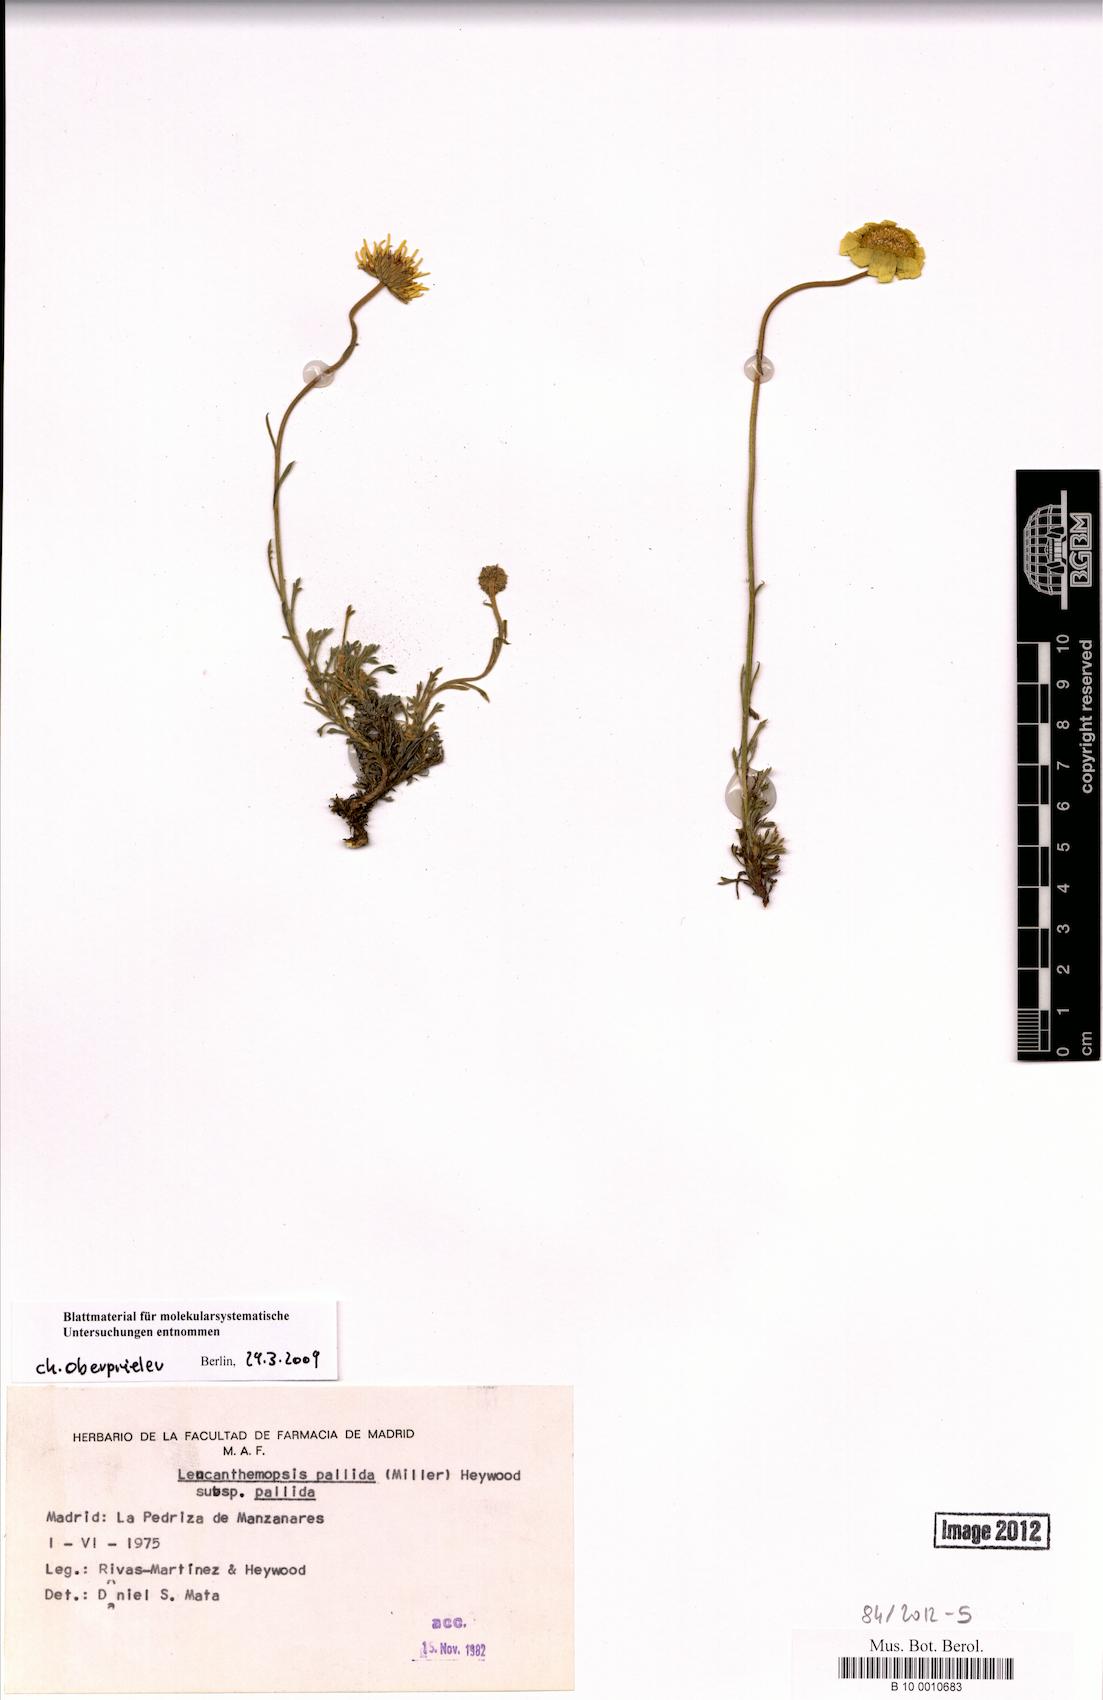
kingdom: Plantae
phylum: Tracheophyta
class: Magnoliopsida
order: Asterales
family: Asteraceae
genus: Leucanthemopsis
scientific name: Leucanthemopsis pallida
